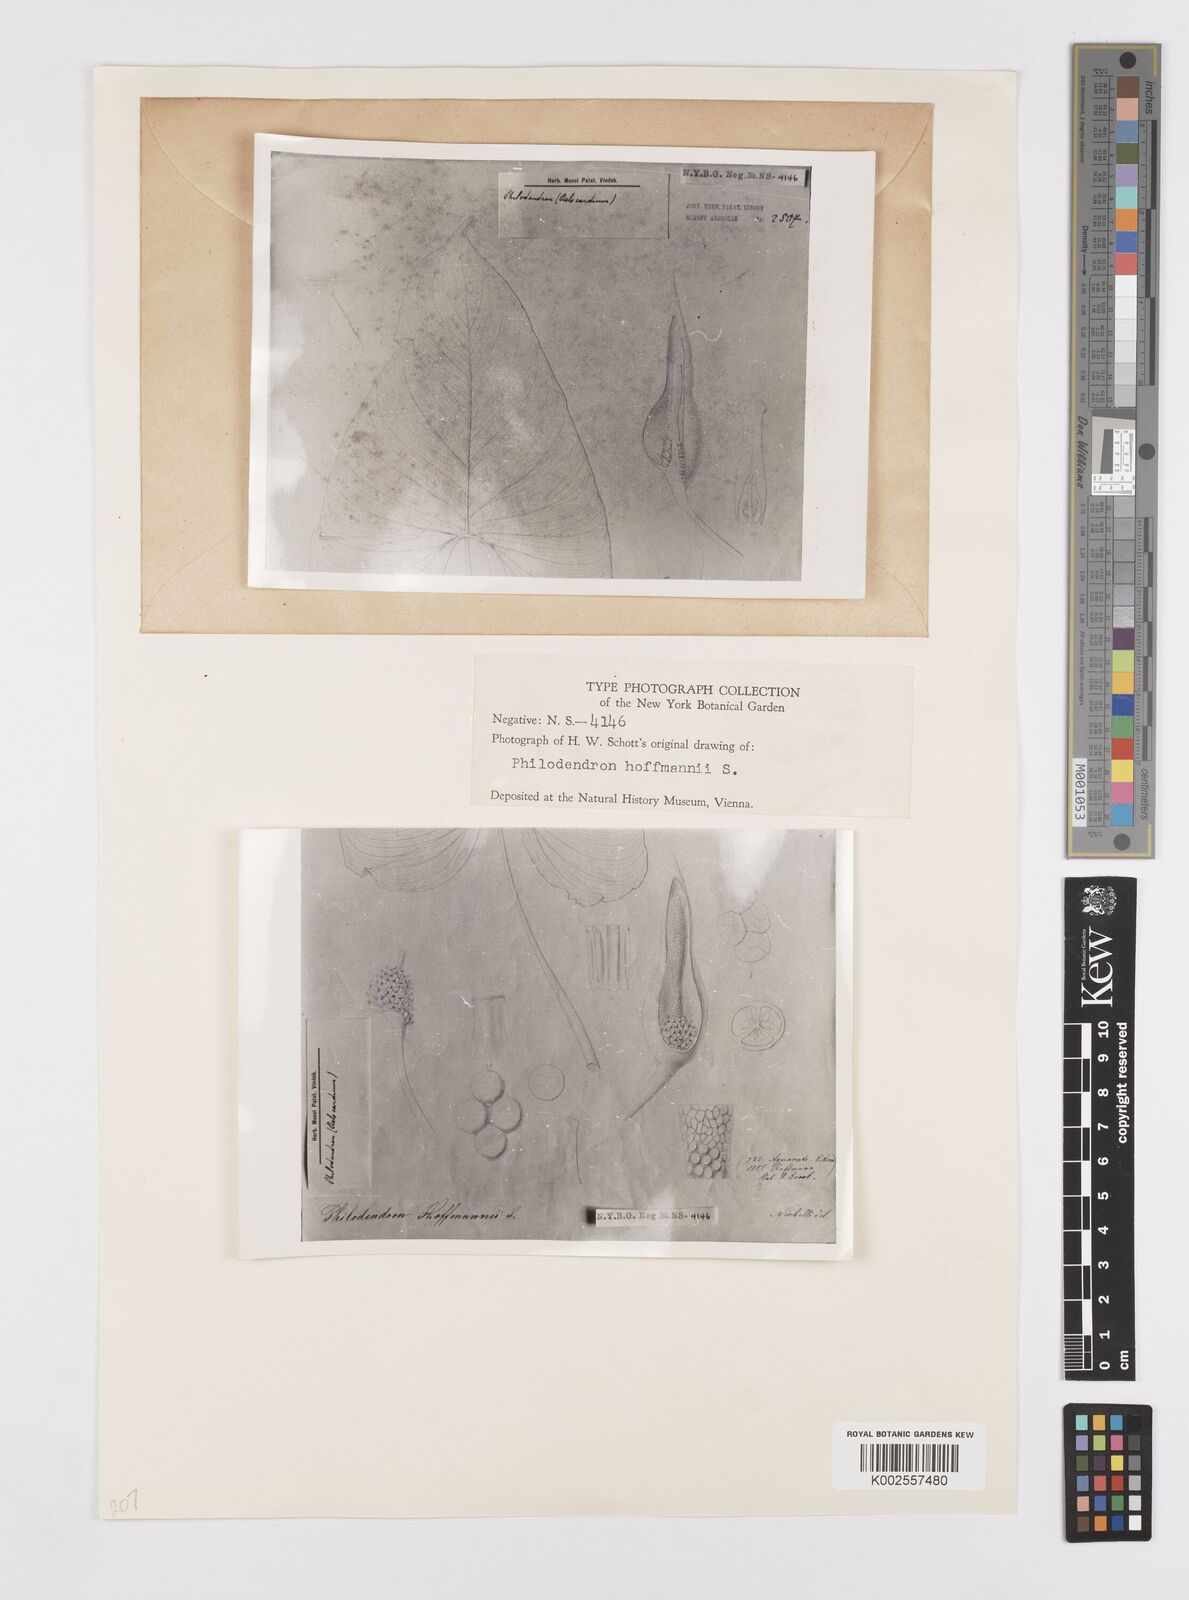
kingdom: Plantae
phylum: Tracheophyta
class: Liliopsida
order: Alismatales
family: Araceae
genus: Philodendron
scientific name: Philodendron hederaceum
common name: Vilevine
